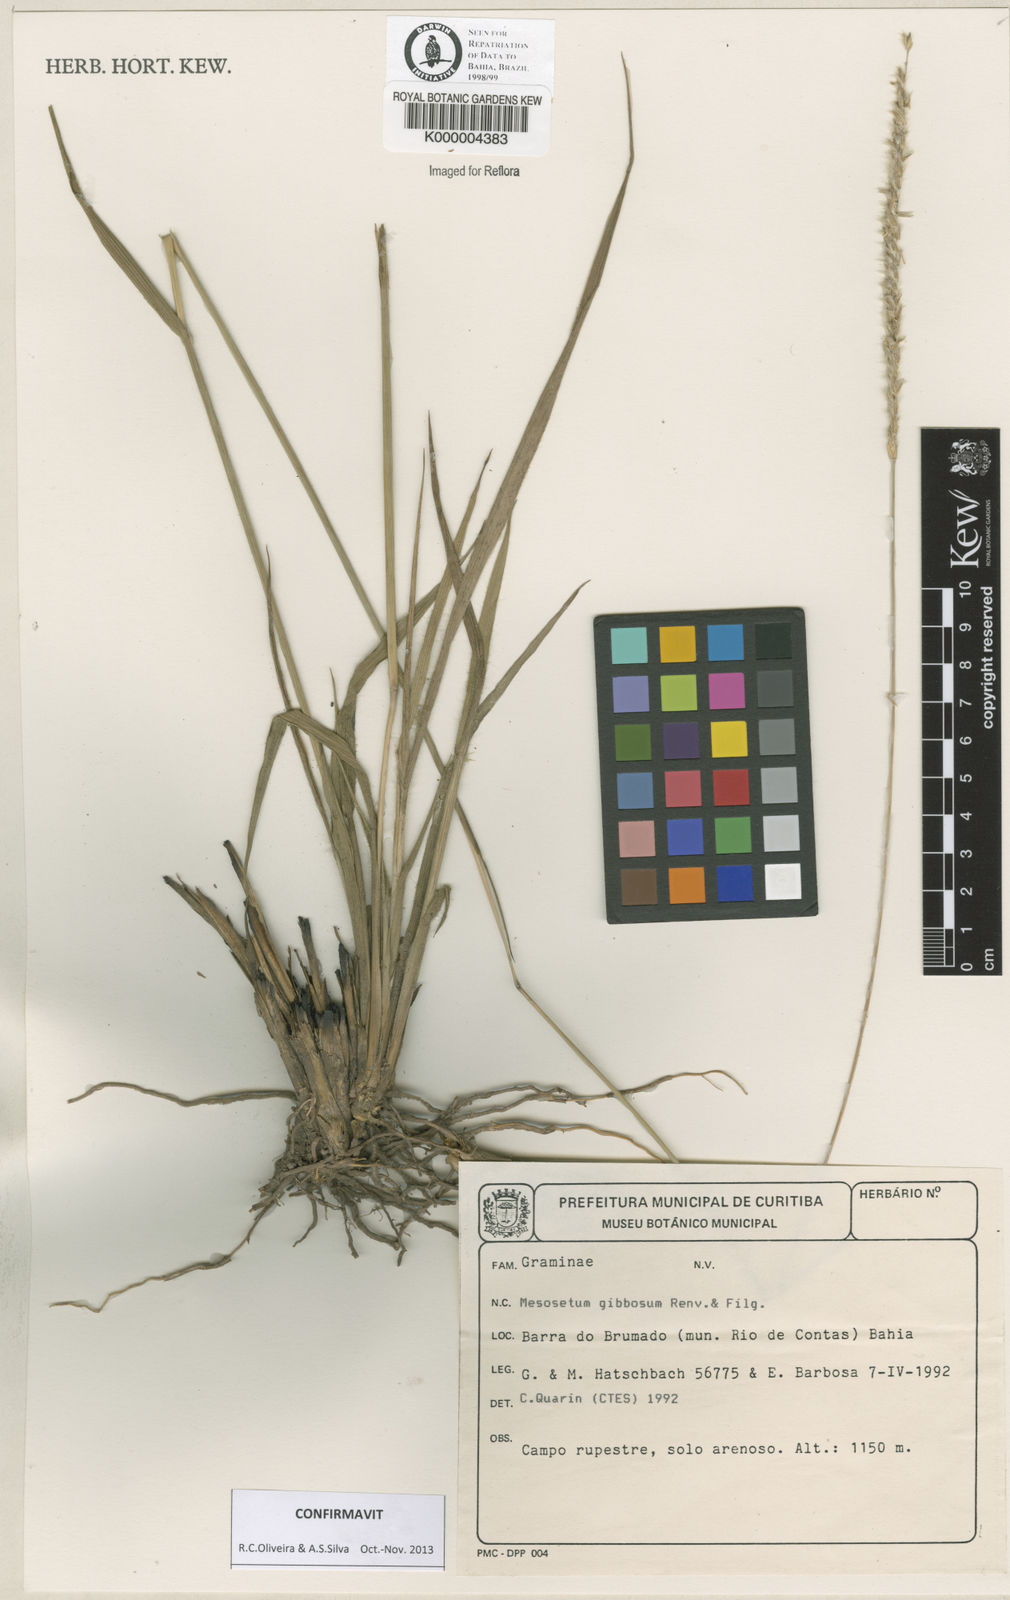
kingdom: Plantae
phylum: Tracheophyta
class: Liliopsida
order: Poales
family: Poaceae
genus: Mesosetum
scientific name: Mesosetum gibbosum
